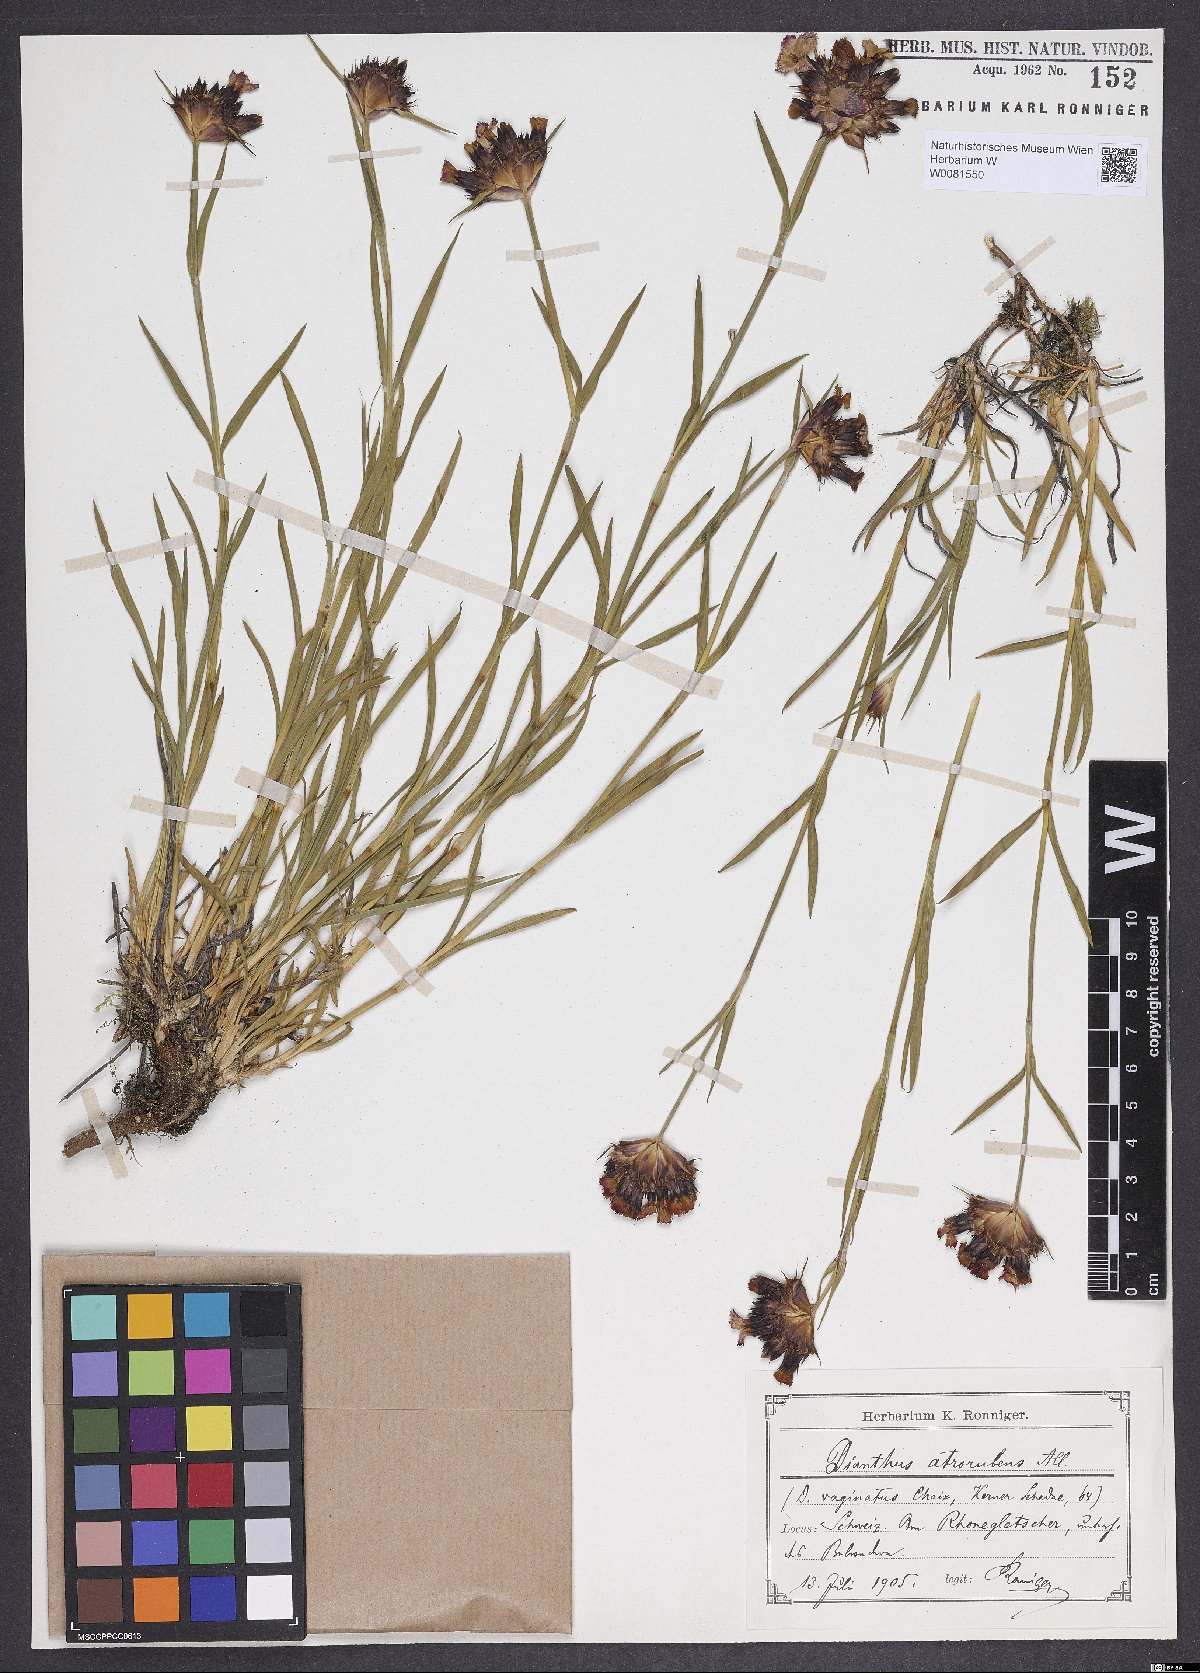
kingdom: Plantae
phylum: Tracheophyta
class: Magnoliopsida
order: Caryophyllales
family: Caryophyllaceae
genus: Dianthus
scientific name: Dianthus carthusianorum
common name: Carthusian pink
